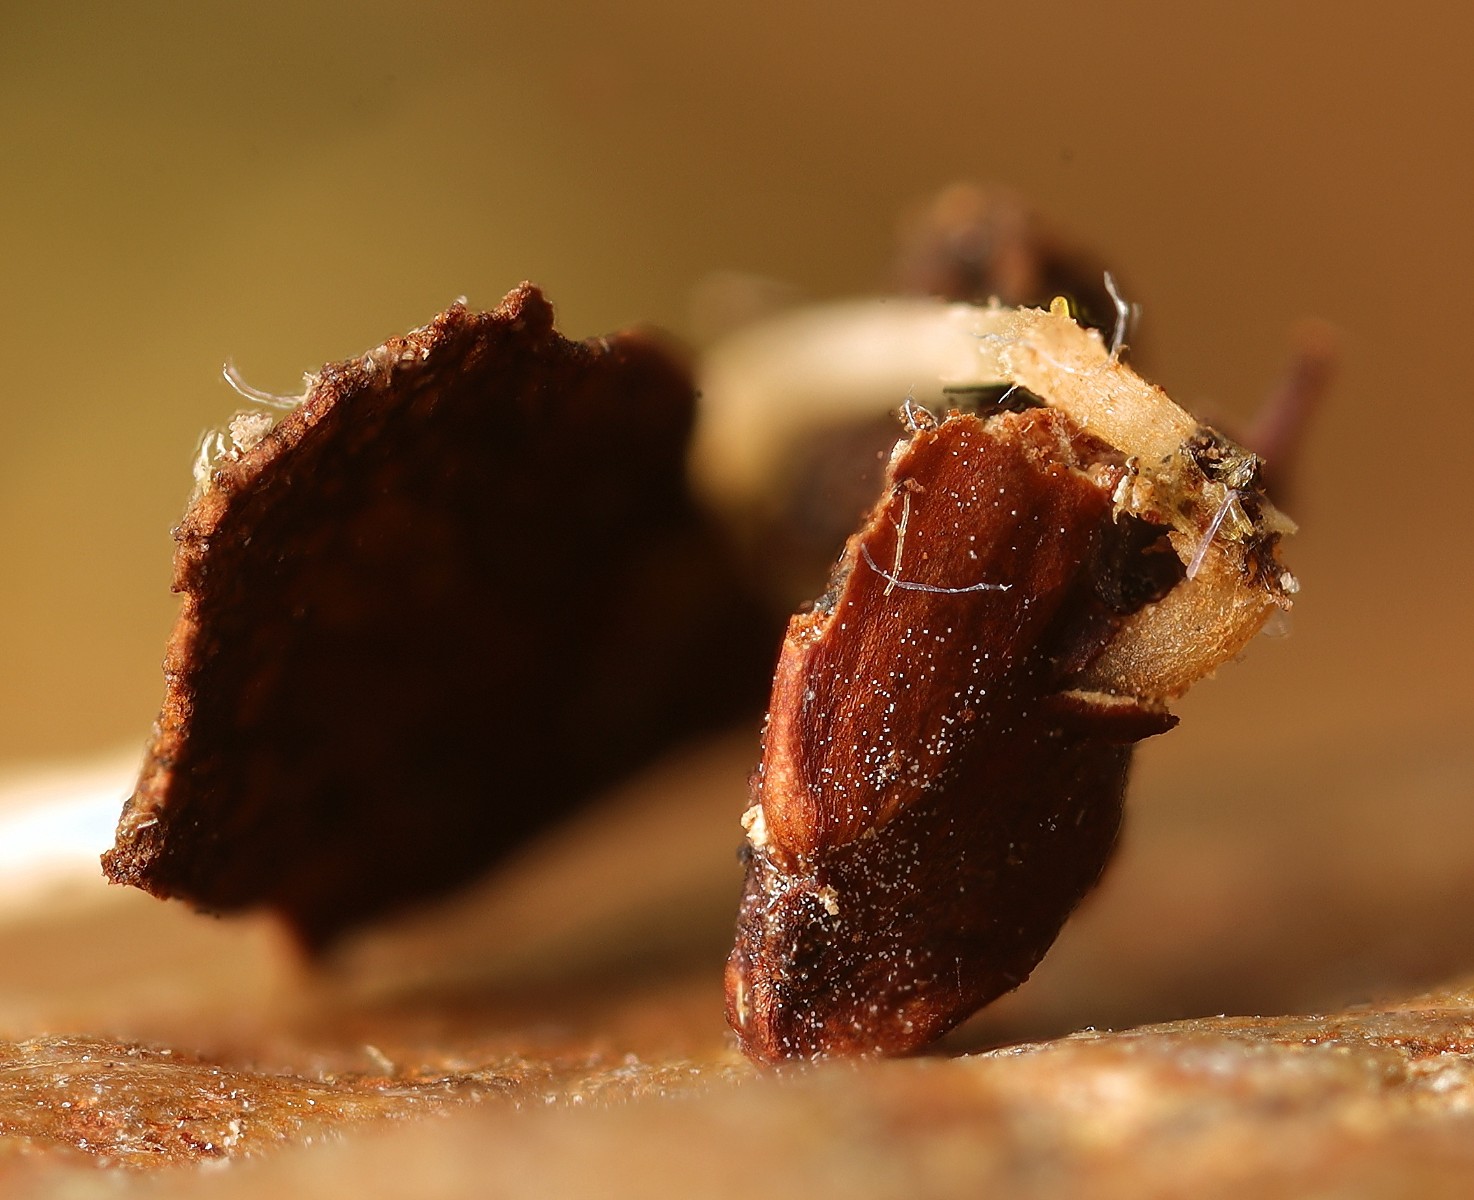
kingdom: Fungi
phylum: Ascomycota
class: Leotiomycetes
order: Helotiales
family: Helotiaceae
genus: Hymenoscyphus
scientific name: Hymenoscyphus seminis-alni
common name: ellefrø-stilkskive
